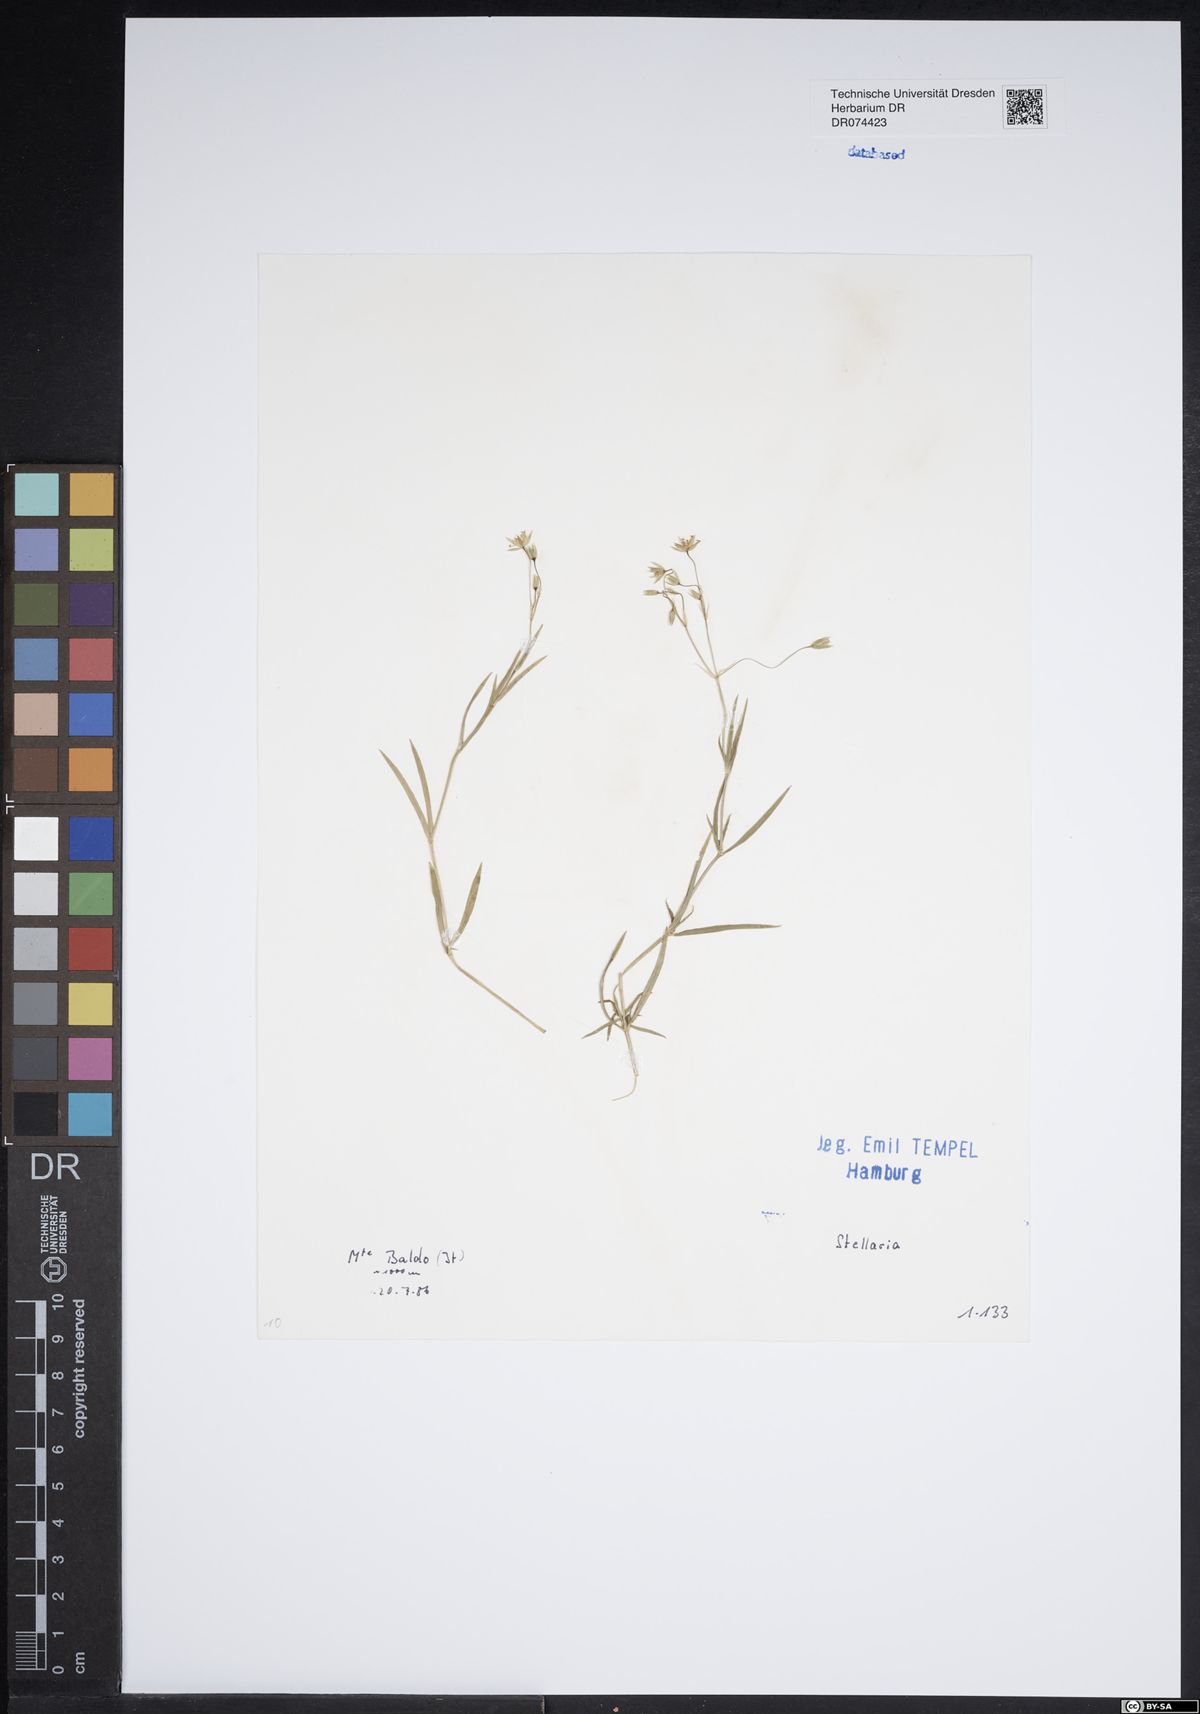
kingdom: Plantae
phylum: Tracheophyta
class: Magnoliopsida
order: Caryophyllales
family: Caryophyllaceae
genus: Stellaria
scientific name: Stellaria
